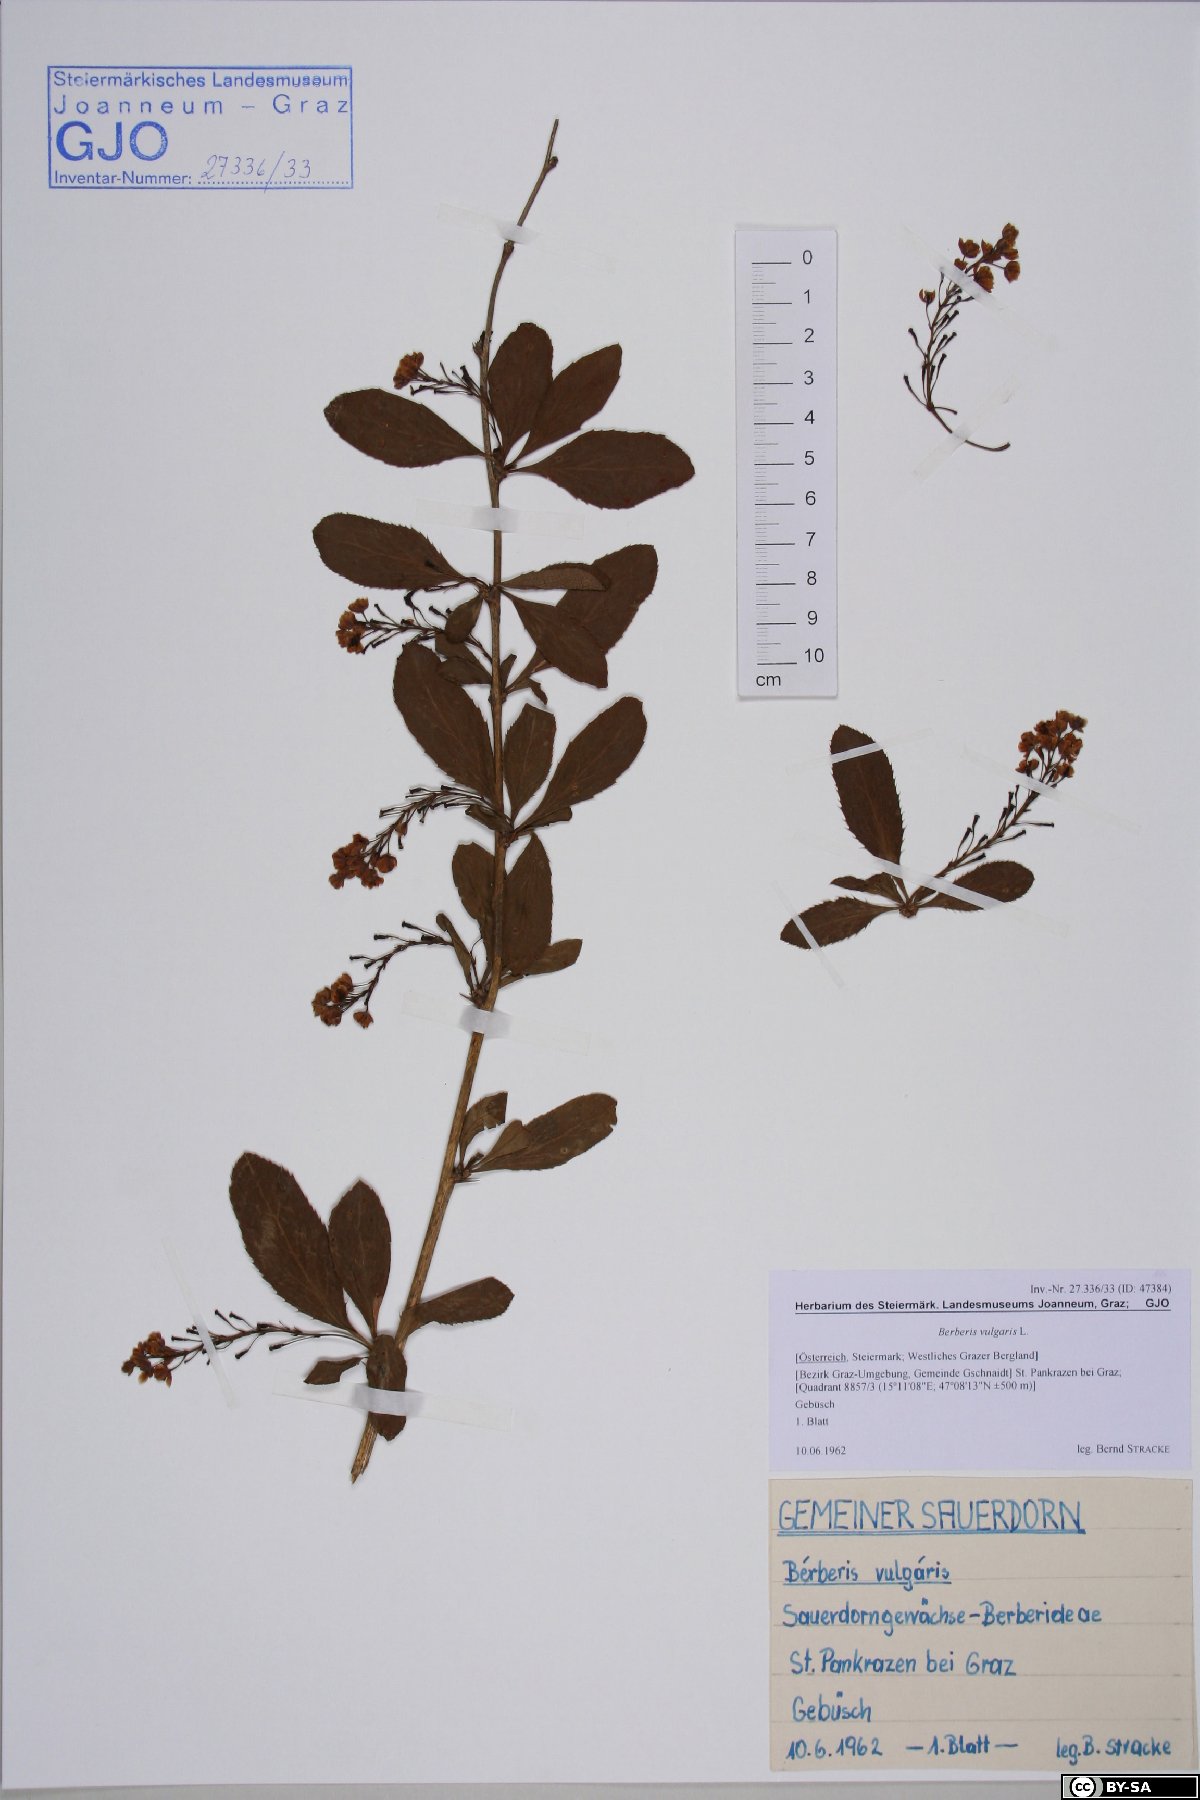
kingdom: Plantae
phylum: Tracheophyta
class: Magnoliopsida
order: Ranunculales
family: Berberidaceae
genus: Berberis
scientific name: Berberis vulgaris
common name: Barberry
